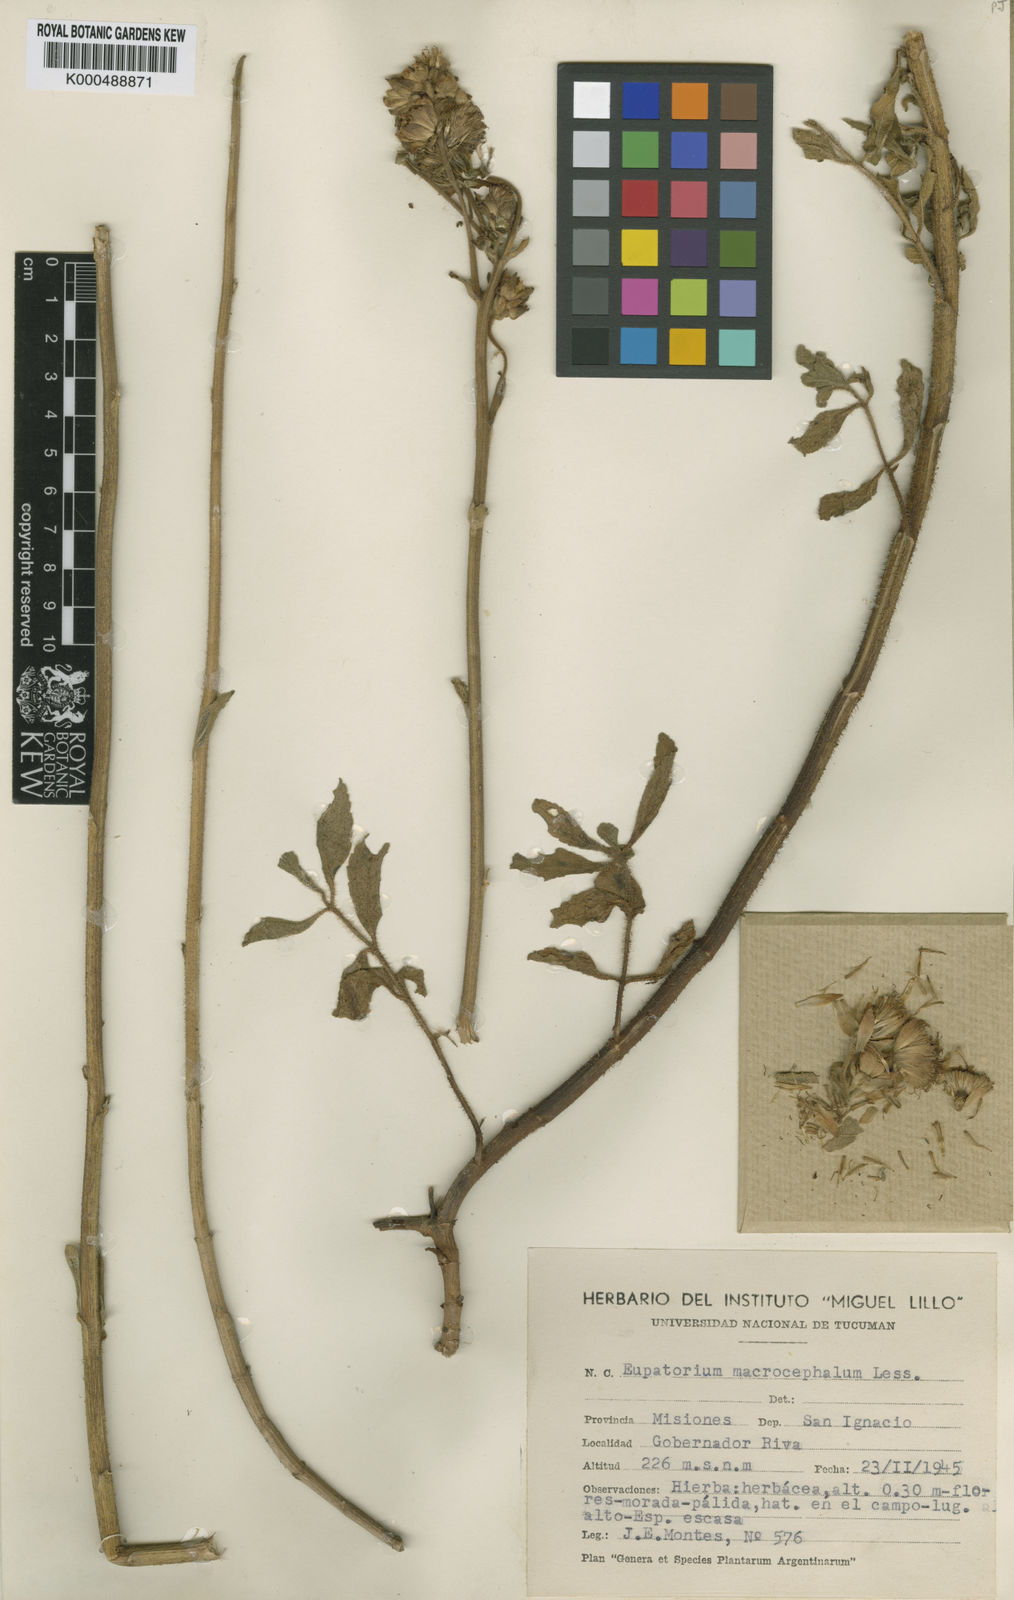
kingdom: Plantae
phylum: Tracheophyta
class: Magnoliopsida
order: Asterales
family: Asteraceae
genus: Campuloclinium
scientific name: Campuloclinium macrocephalum
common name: Pompomweed
